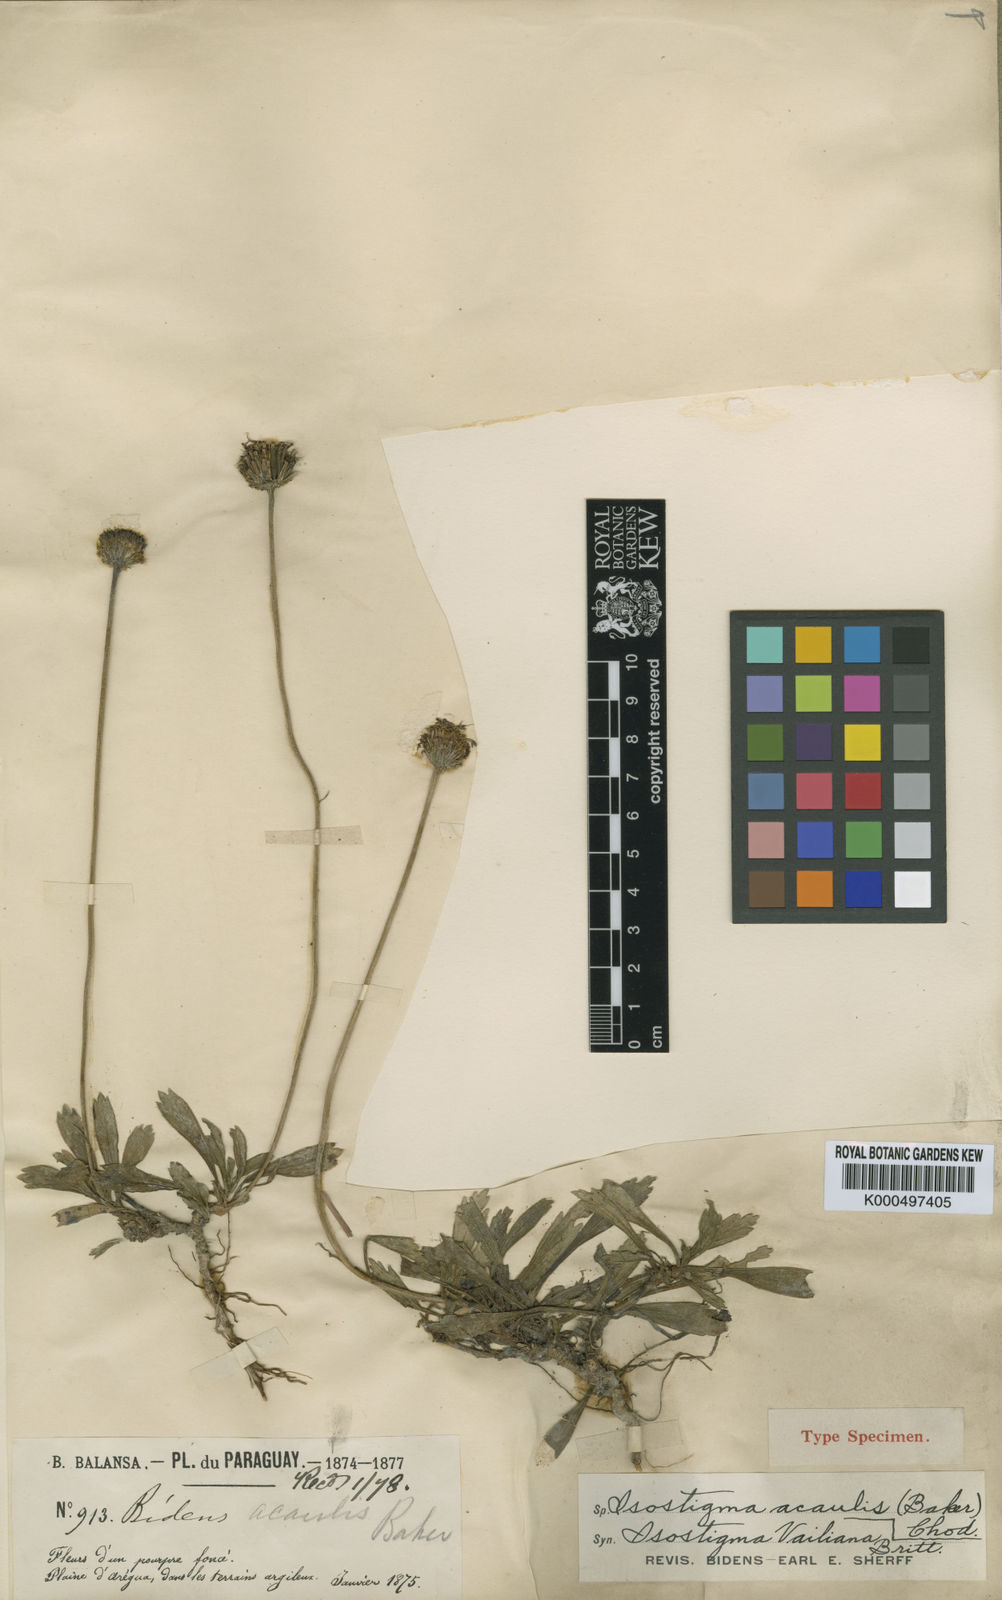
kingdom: Plantae
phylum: Tracheophyta
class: Magnoliopsida
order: Asterales
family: Asteraceae
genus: Isostigma
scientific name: Isostigma acaule
